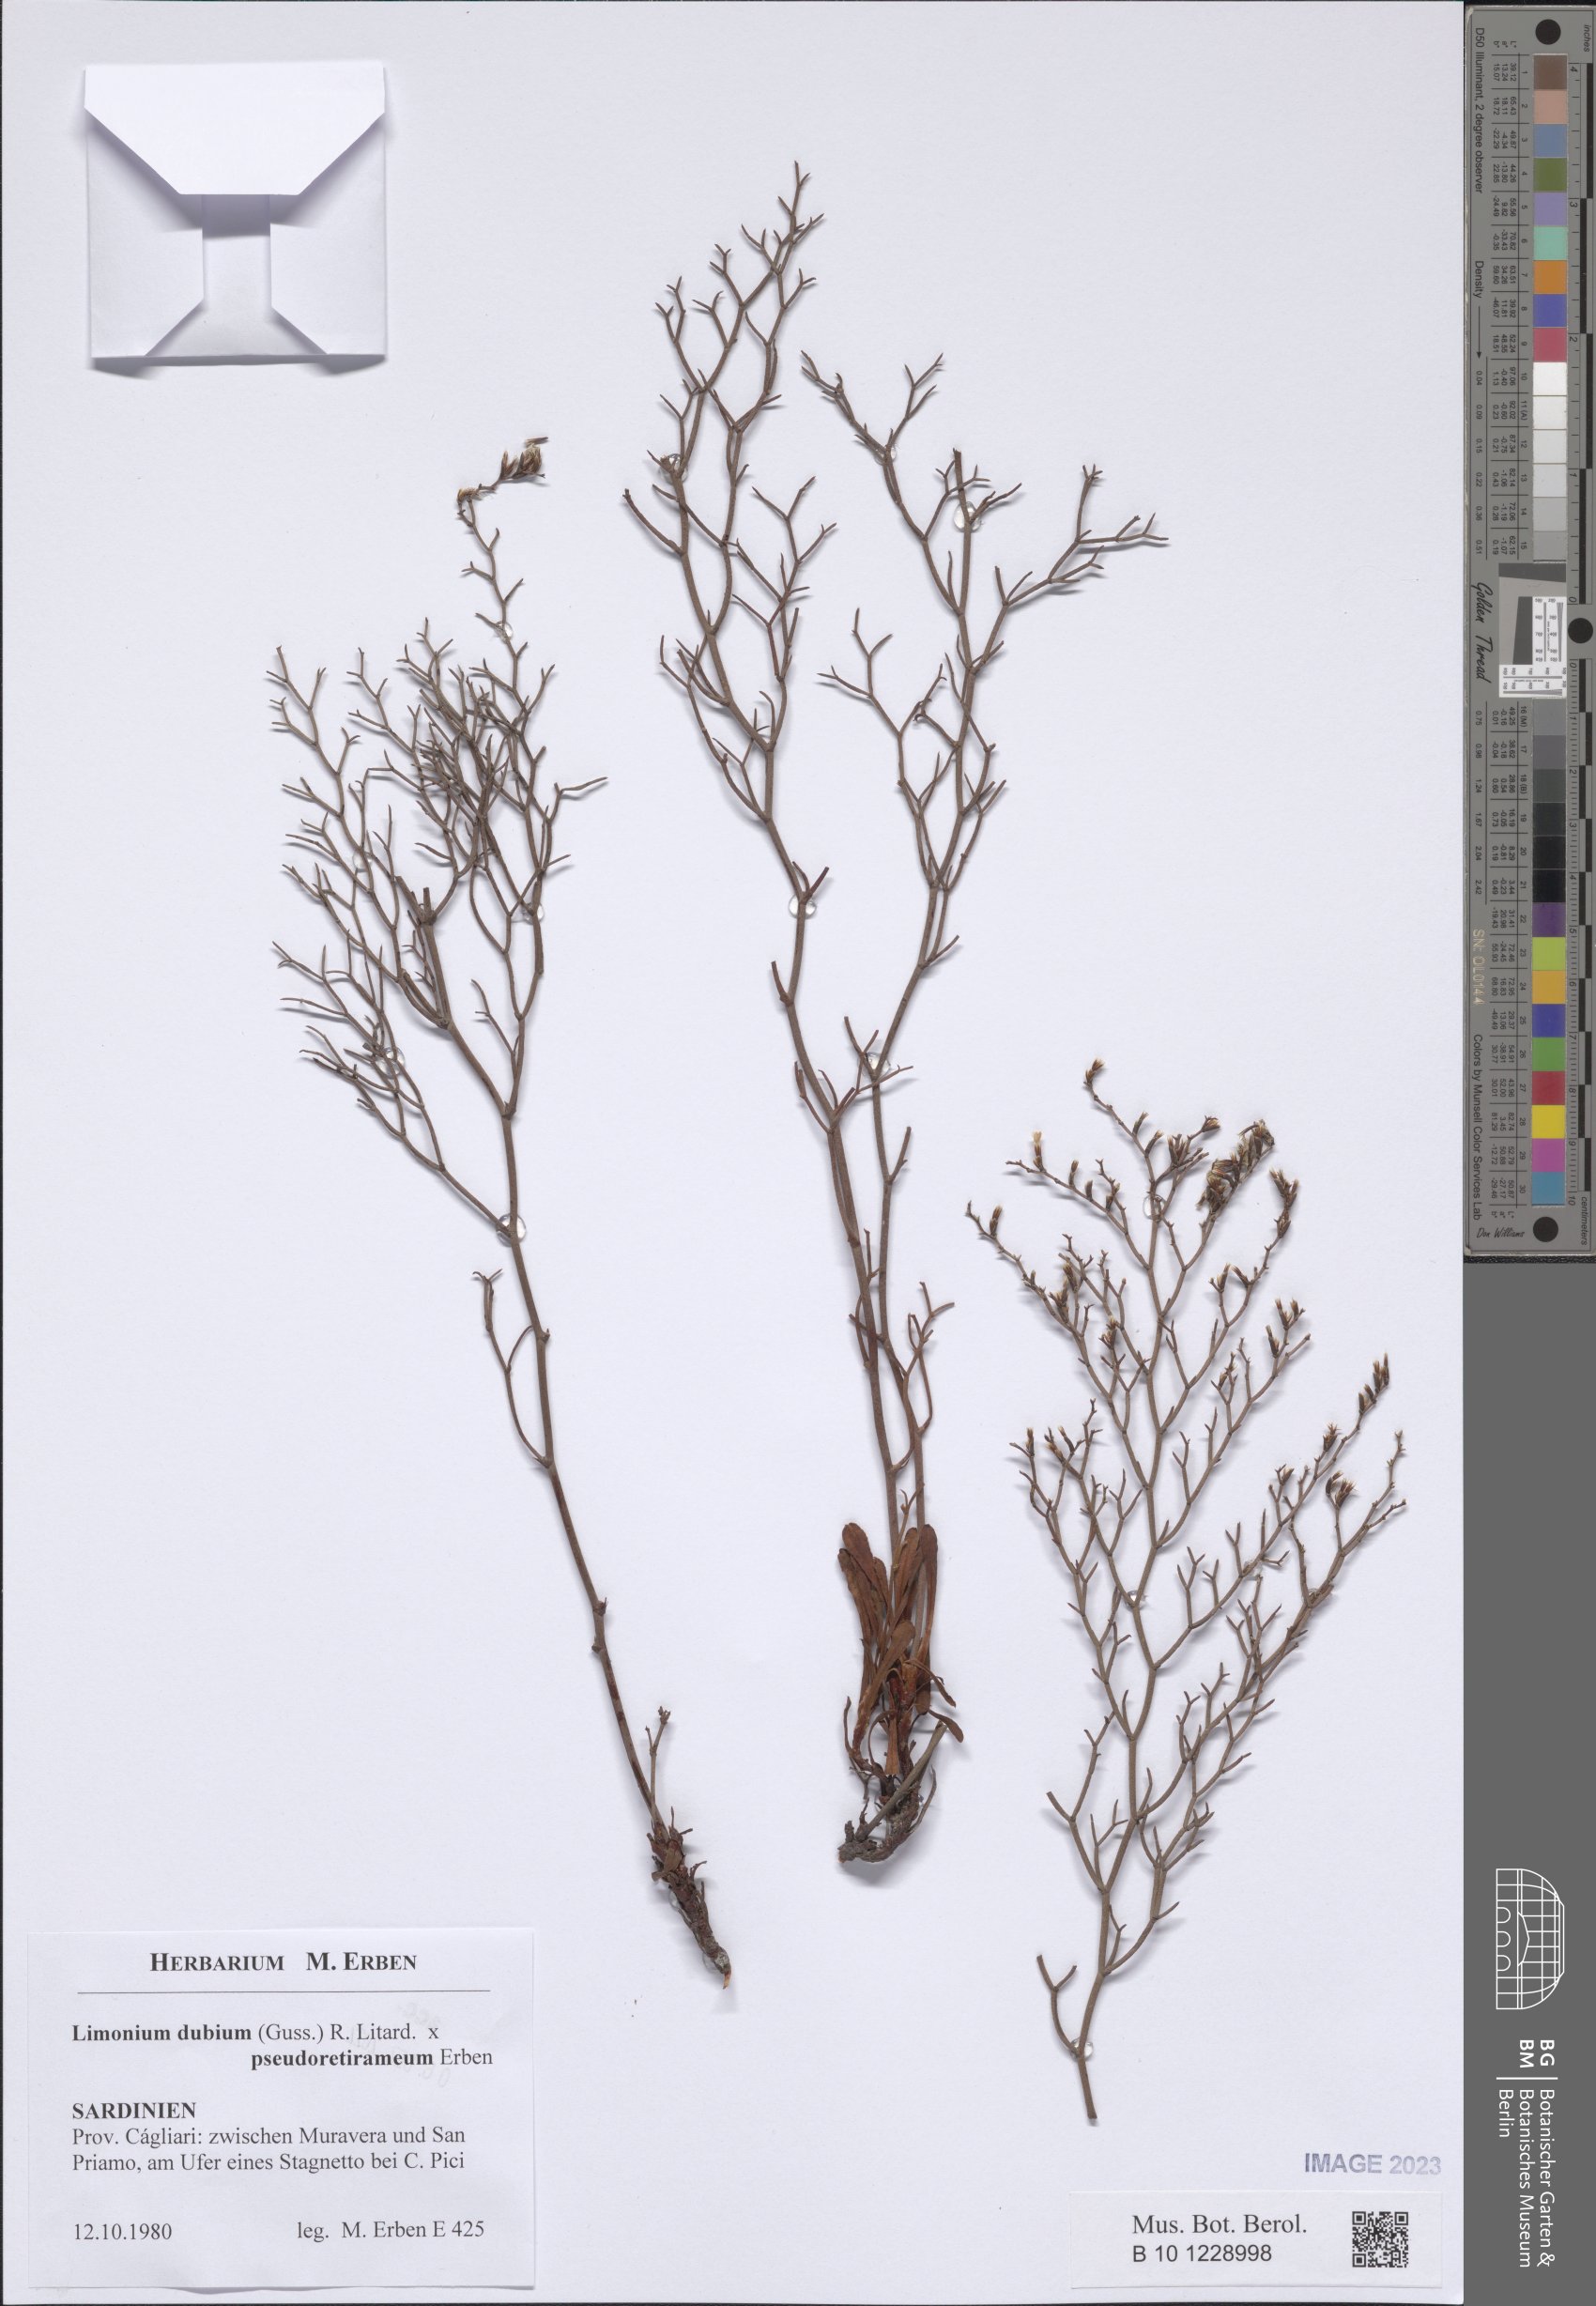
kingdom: Plantae
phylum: Tracheophyta
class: Magnoliopsida
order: Caryophyllales
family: Plumbaginaceae
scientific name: Plumbaginaceae
